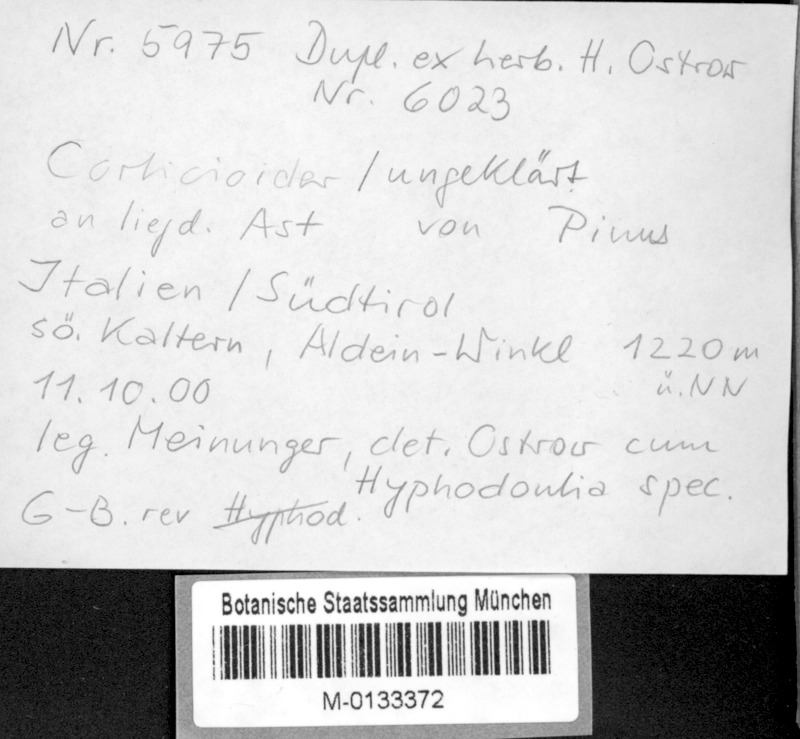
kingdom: Fungi
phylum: Basidiomycota
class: Agaricomycetes
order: Hymenochaetales
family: Hyphodontiaceae
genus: Hyphodontia
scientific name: Hyphodontia
